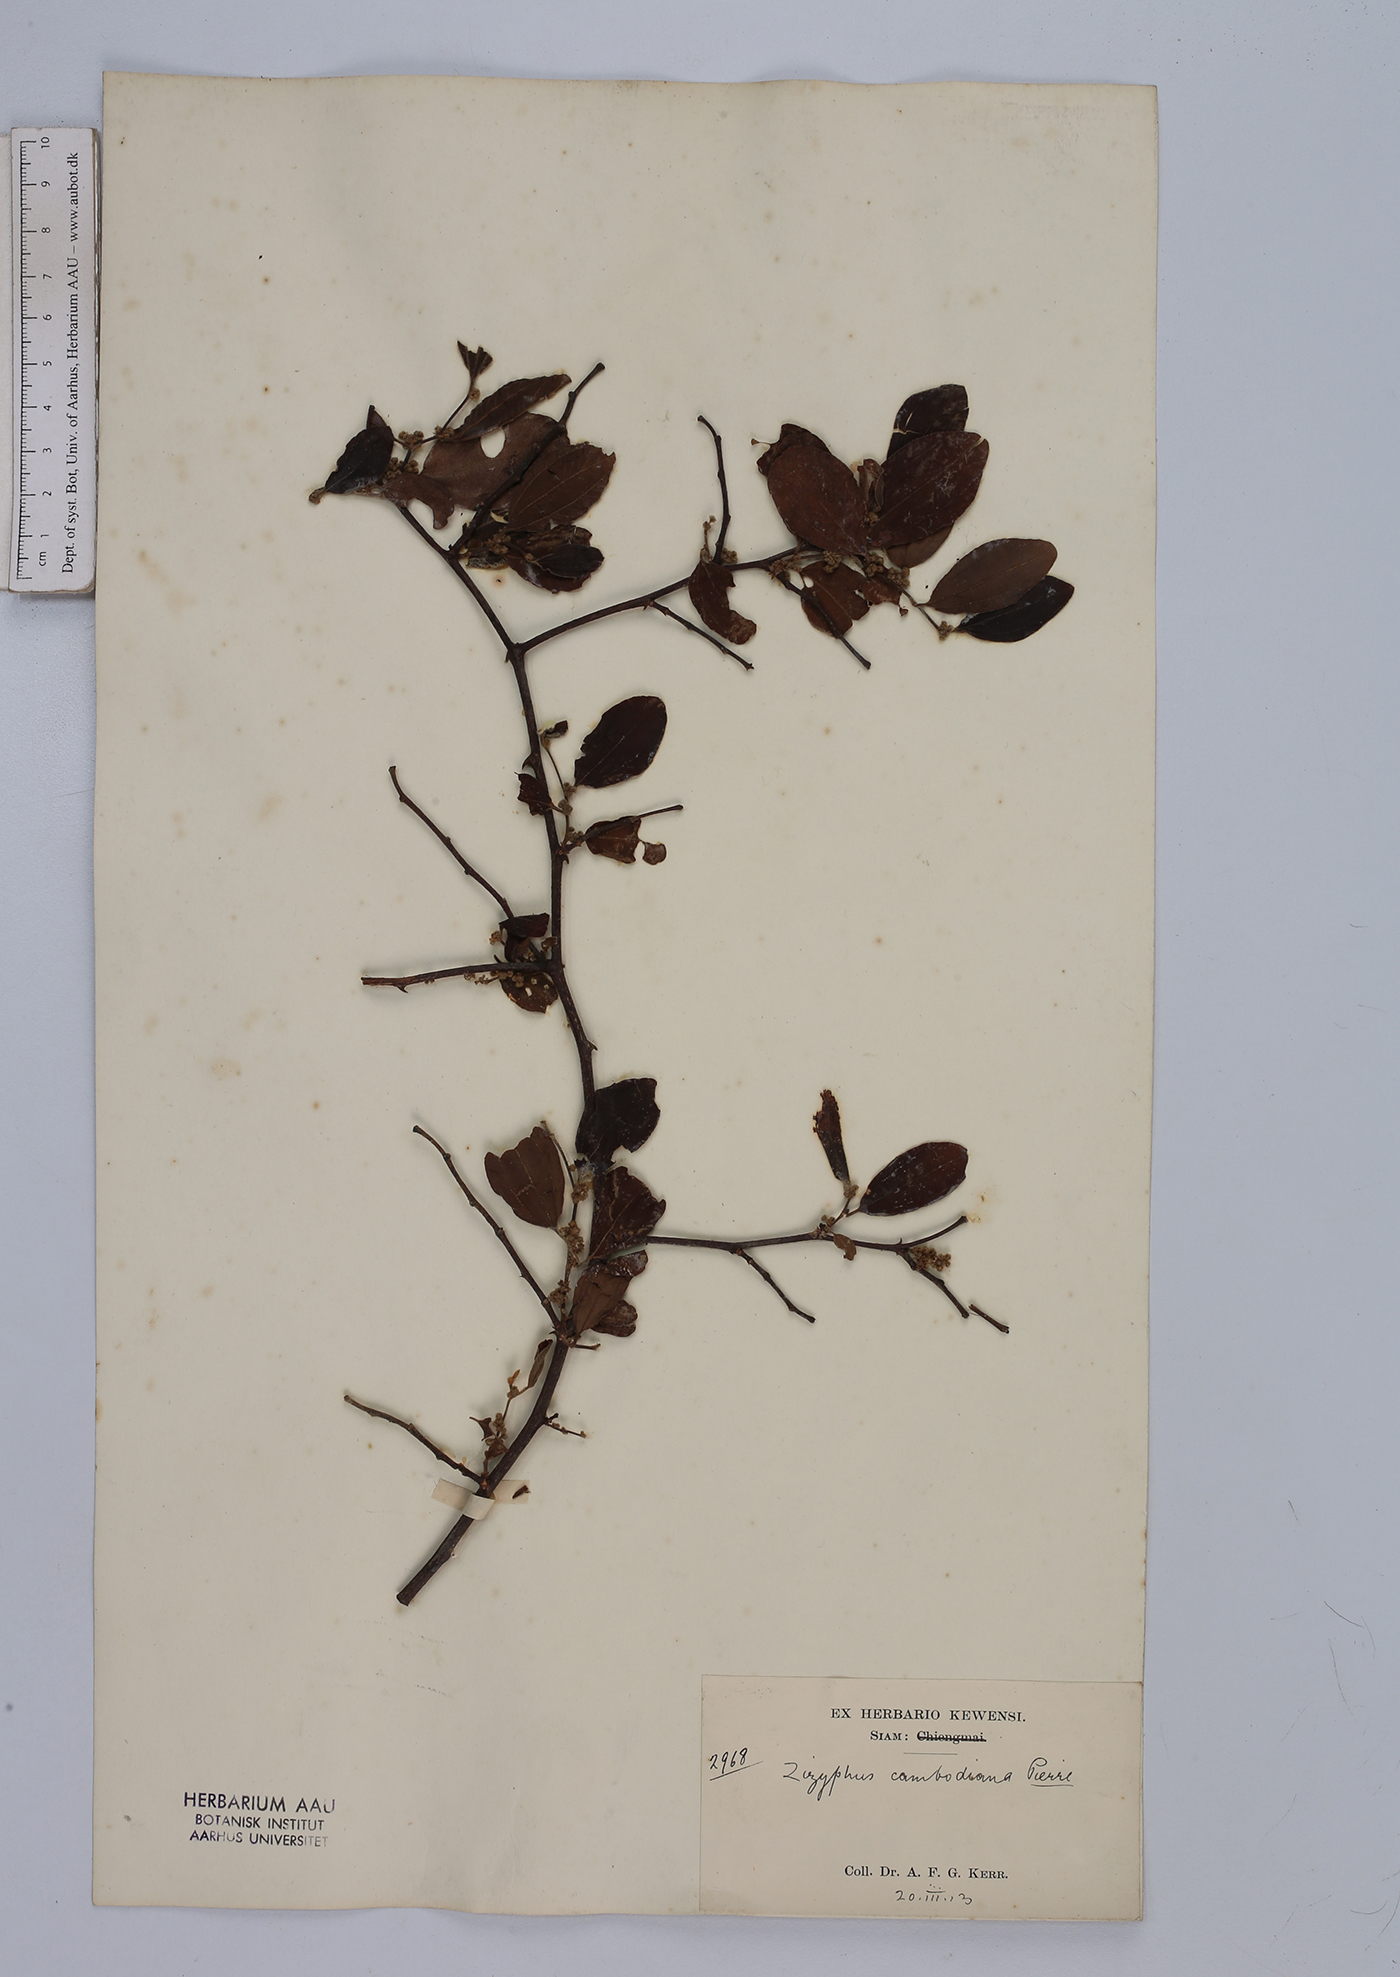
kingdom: Plantae
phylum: Tracheophyta
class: Magnoliopsida
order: Rosales
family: Rhamnaceae
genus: Ziziphus
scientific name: Ziziphus cambodiana
